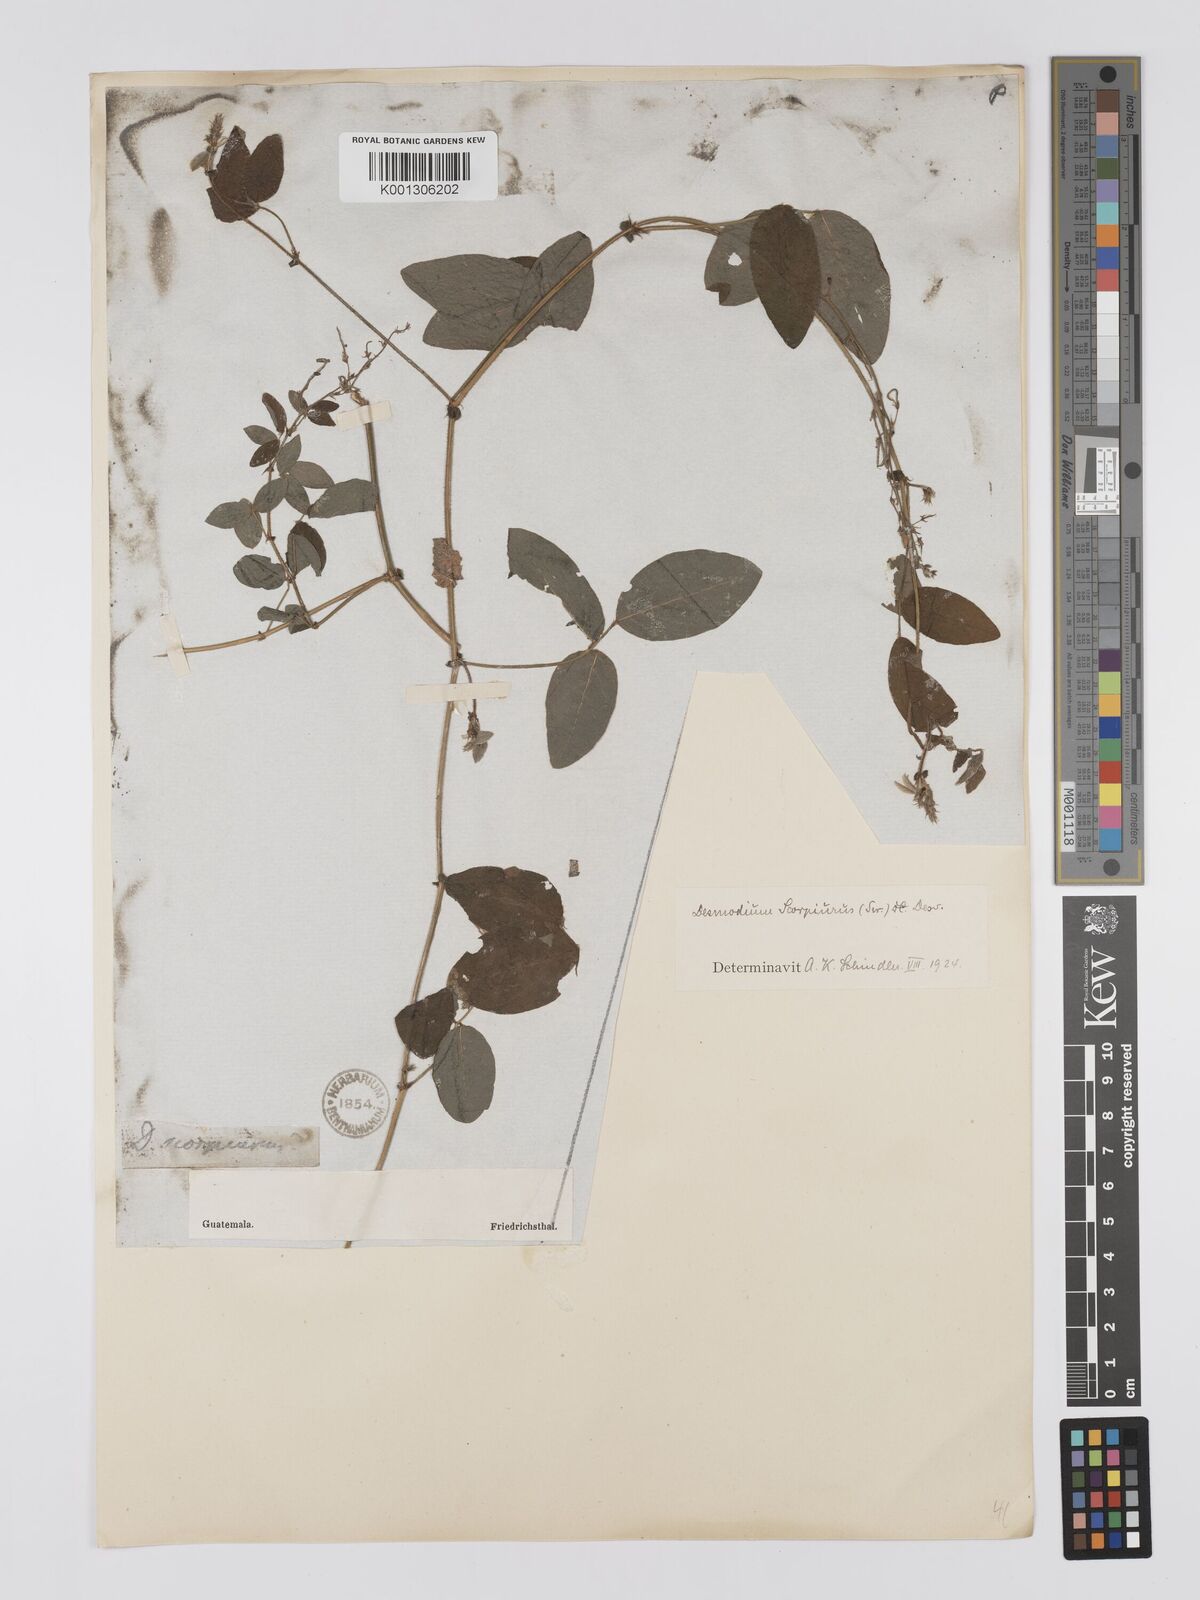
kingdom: Plantae
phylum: Tracheophyta
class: Magnoliopsida
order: Fabales
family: Fabaceae
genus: Desmodium
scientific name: Desmodium scorpiurus
